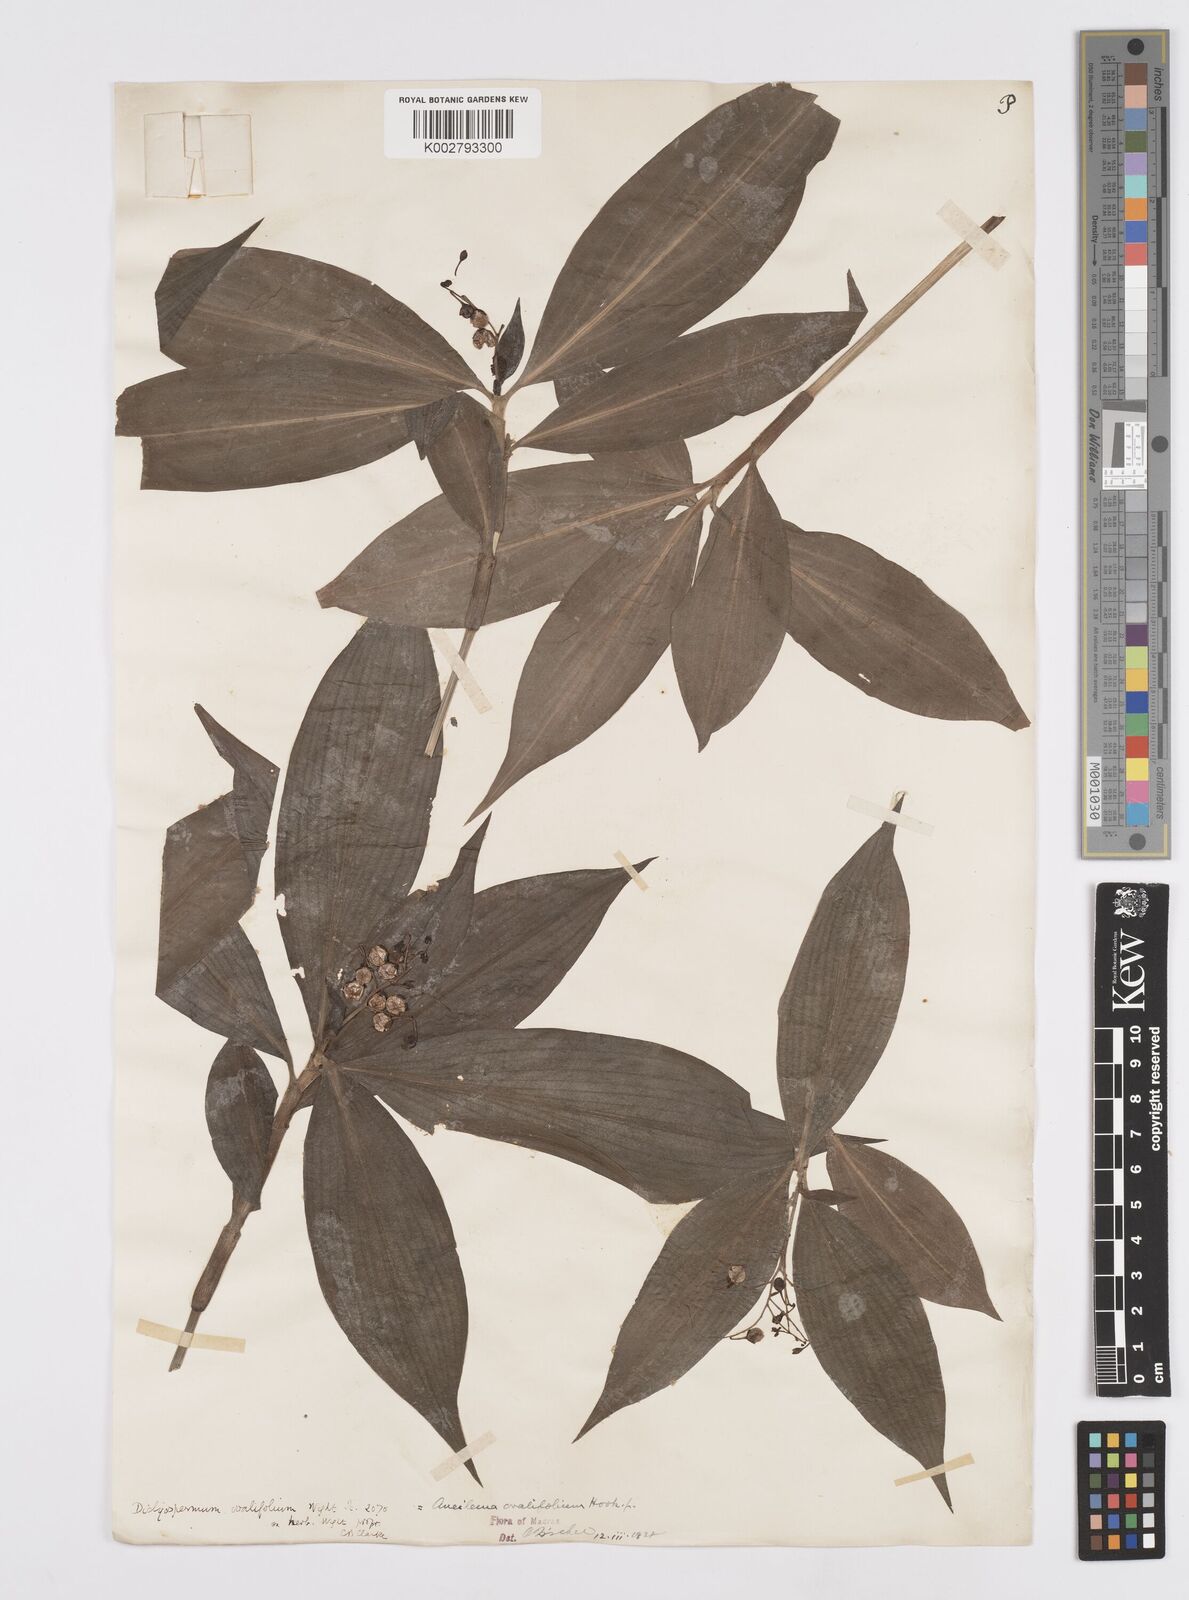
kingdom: Plantae
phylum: Tracheophyta
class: Liliopsida
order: Commelinales
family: Commelinaceae
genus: Murdannia
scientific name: Murdannia
